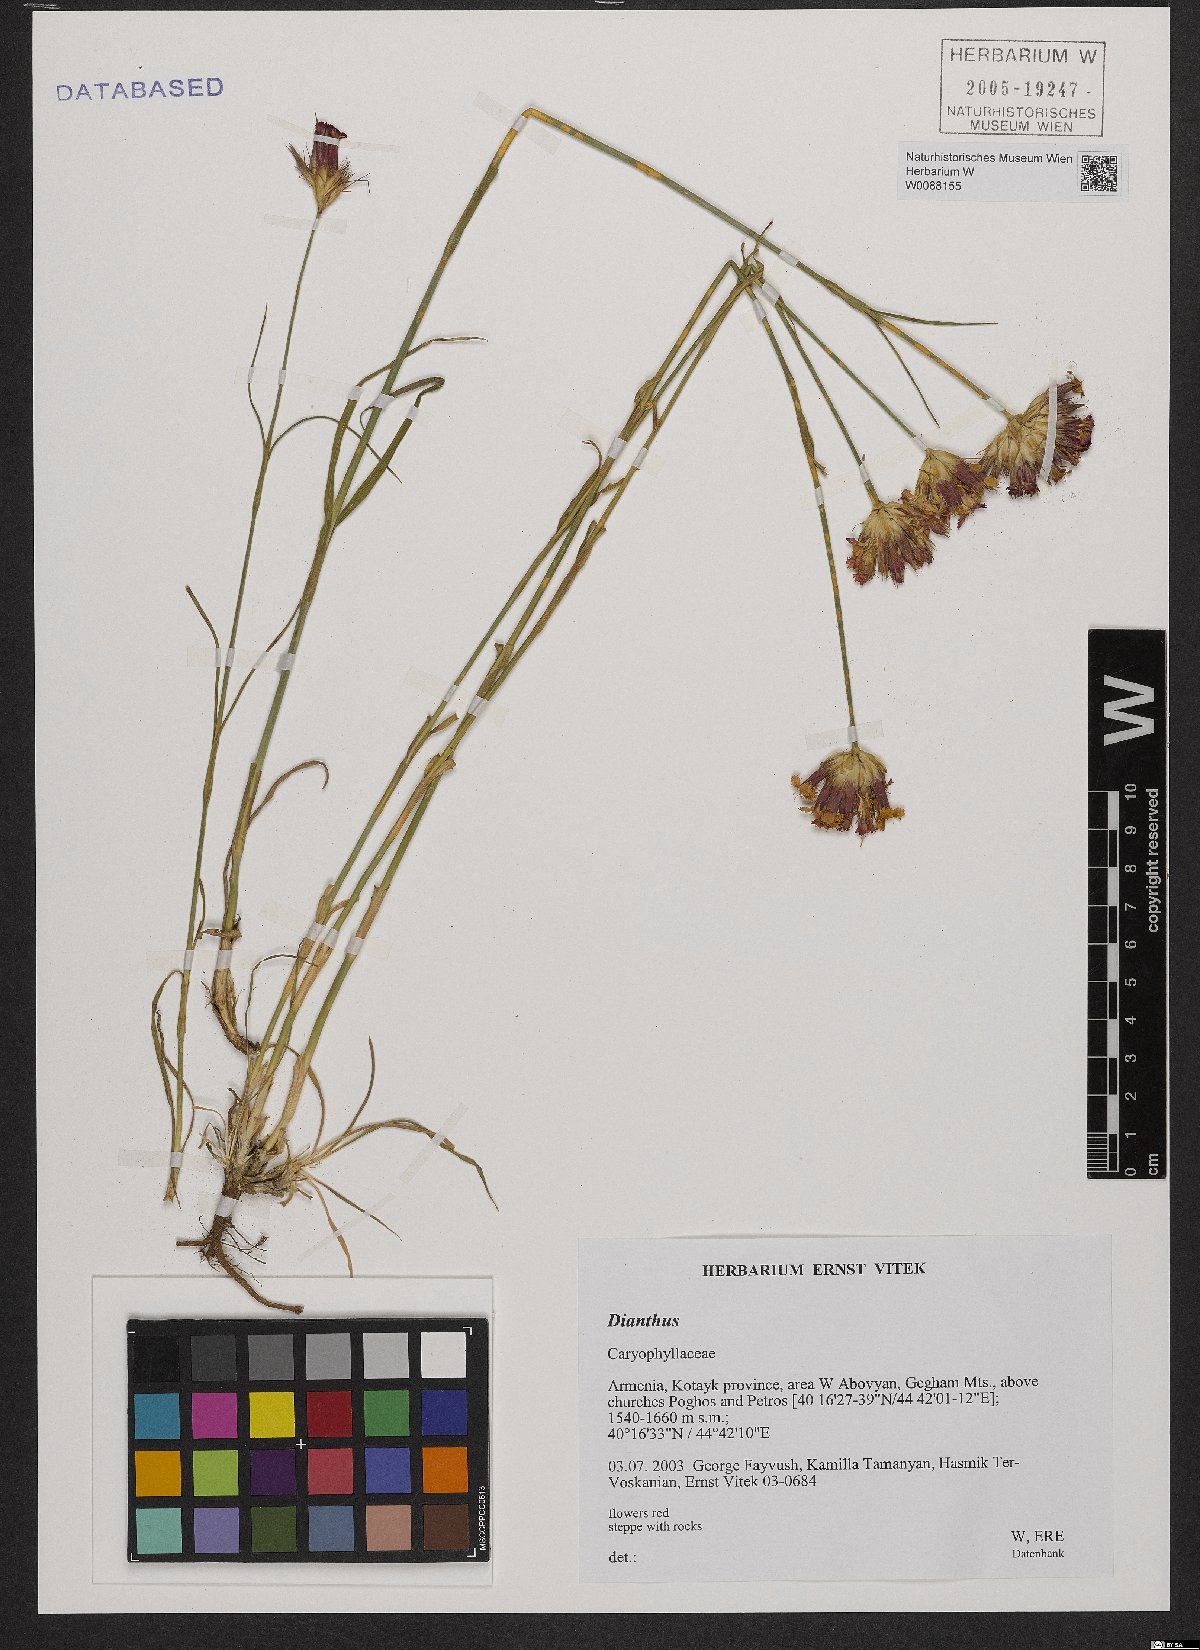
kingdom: Plantae
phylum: Tracheophyta
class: Magnoliopsida
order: Caryophyllales
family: Caryophyllaceae
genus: Dianthus
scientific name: Dianthus
